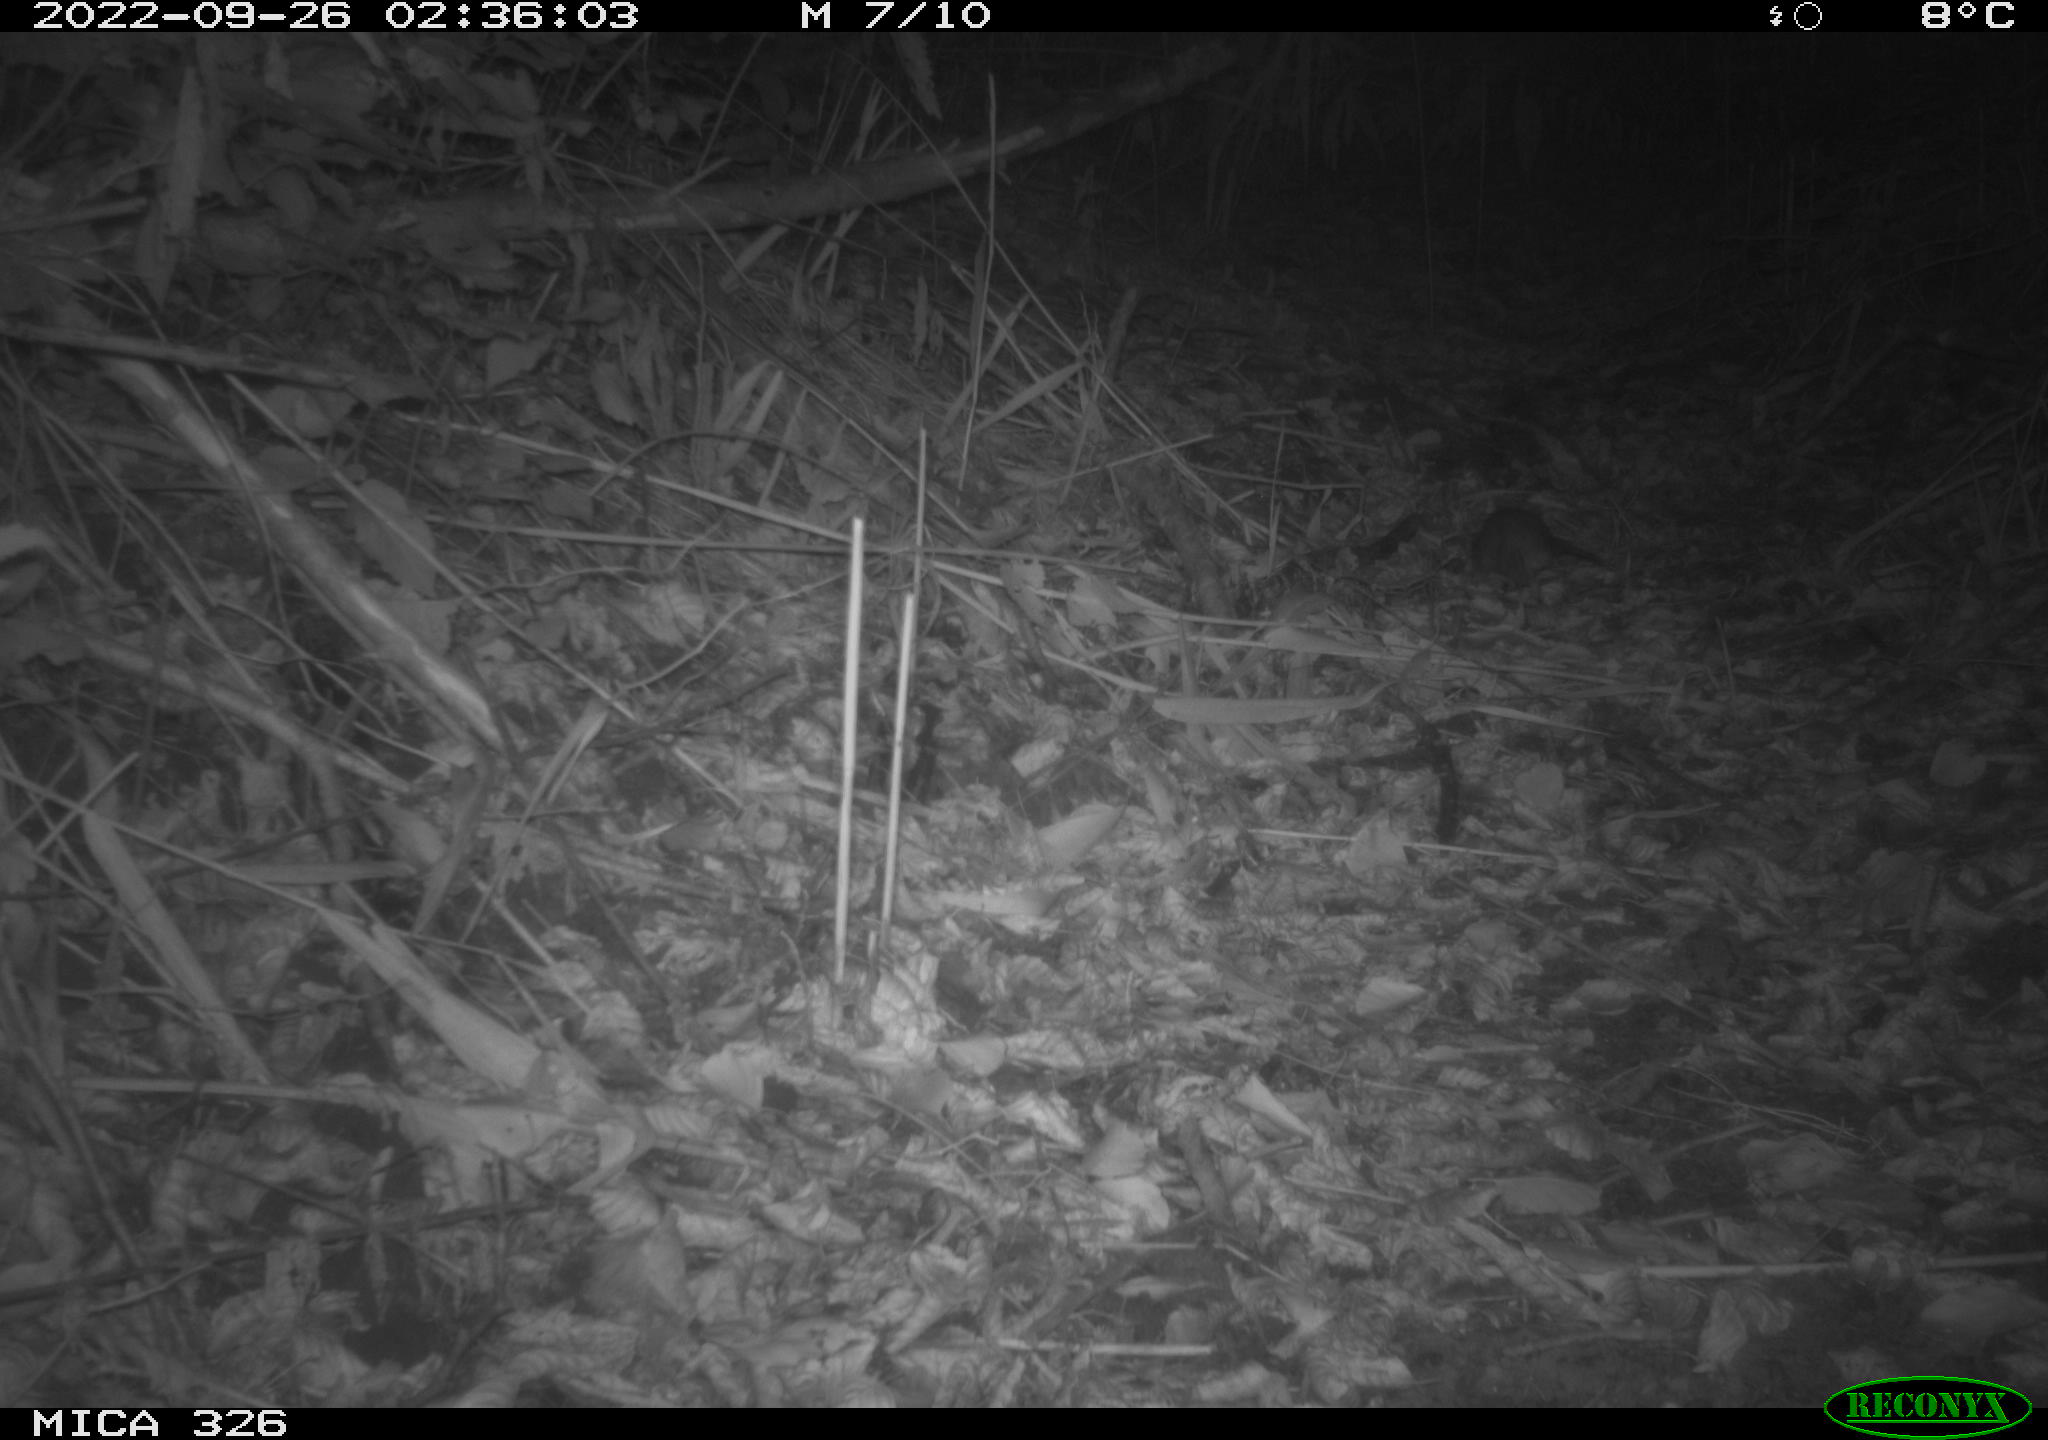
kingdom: Animalia
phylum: Chordata
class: Mammalia
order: Rodentia
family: Muridae
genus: Rattus
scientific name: Rattus norvegicus
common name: Brown rat
